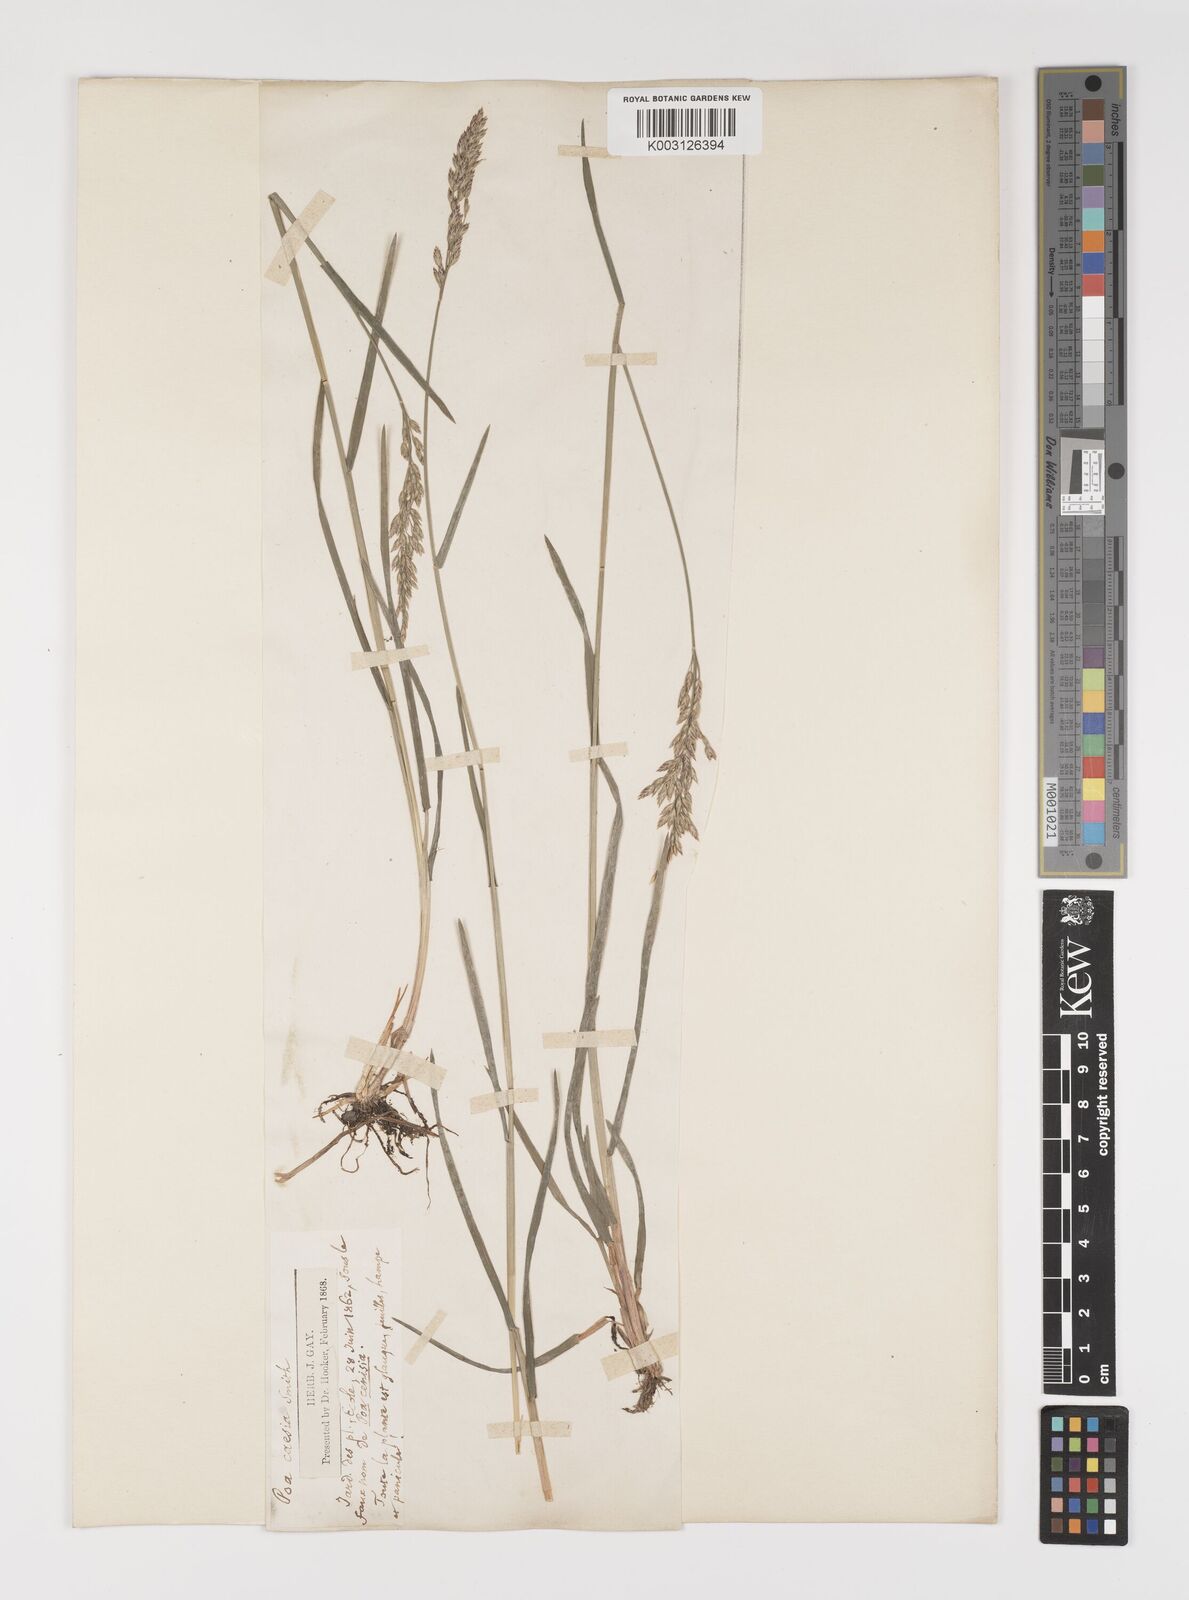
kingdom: Plantae
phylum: Tracheophyta
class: Liliopsida
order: Poales
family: Poaceae
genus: Poa
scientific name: Poa glauca
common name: Glaucous bluegrass
